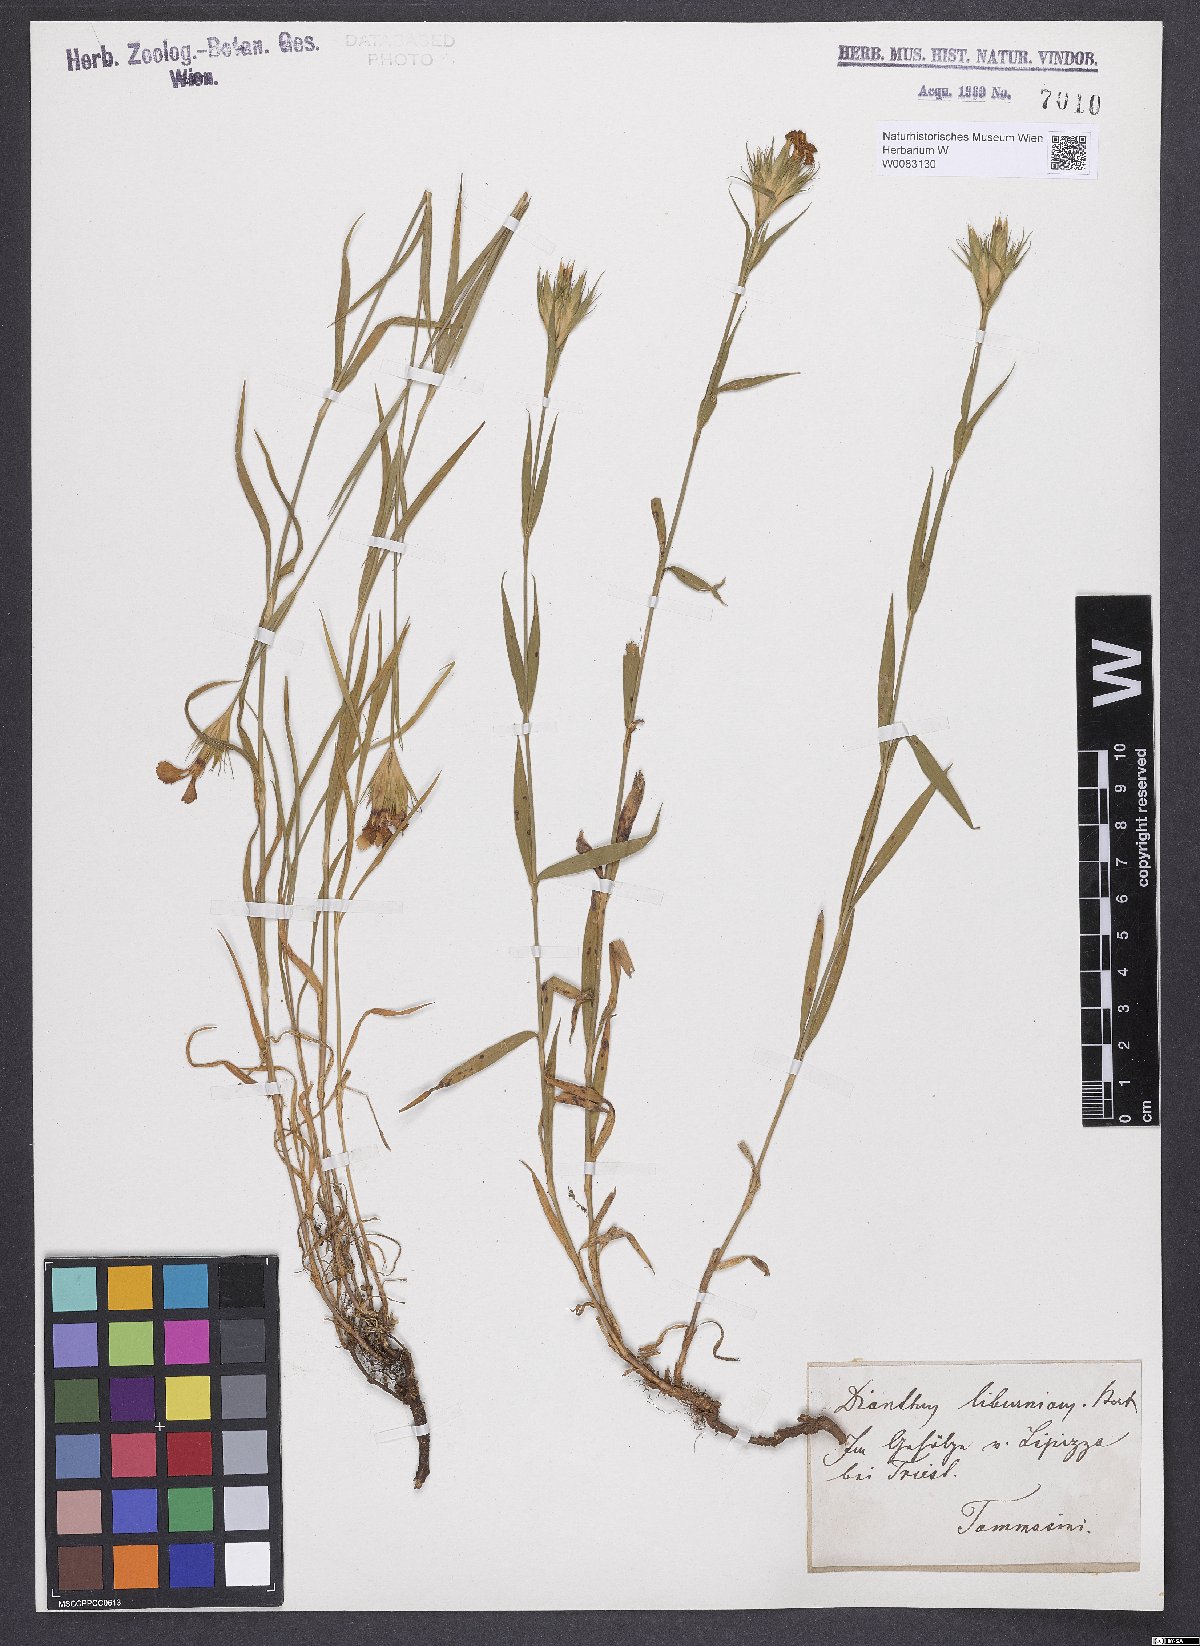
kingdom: Plantae
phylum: Tracheophyta
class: Magnoliopsida
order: Caryophyllales
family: Caryophyllaceae
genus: Dianthus
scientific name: Dianthus balbisii
